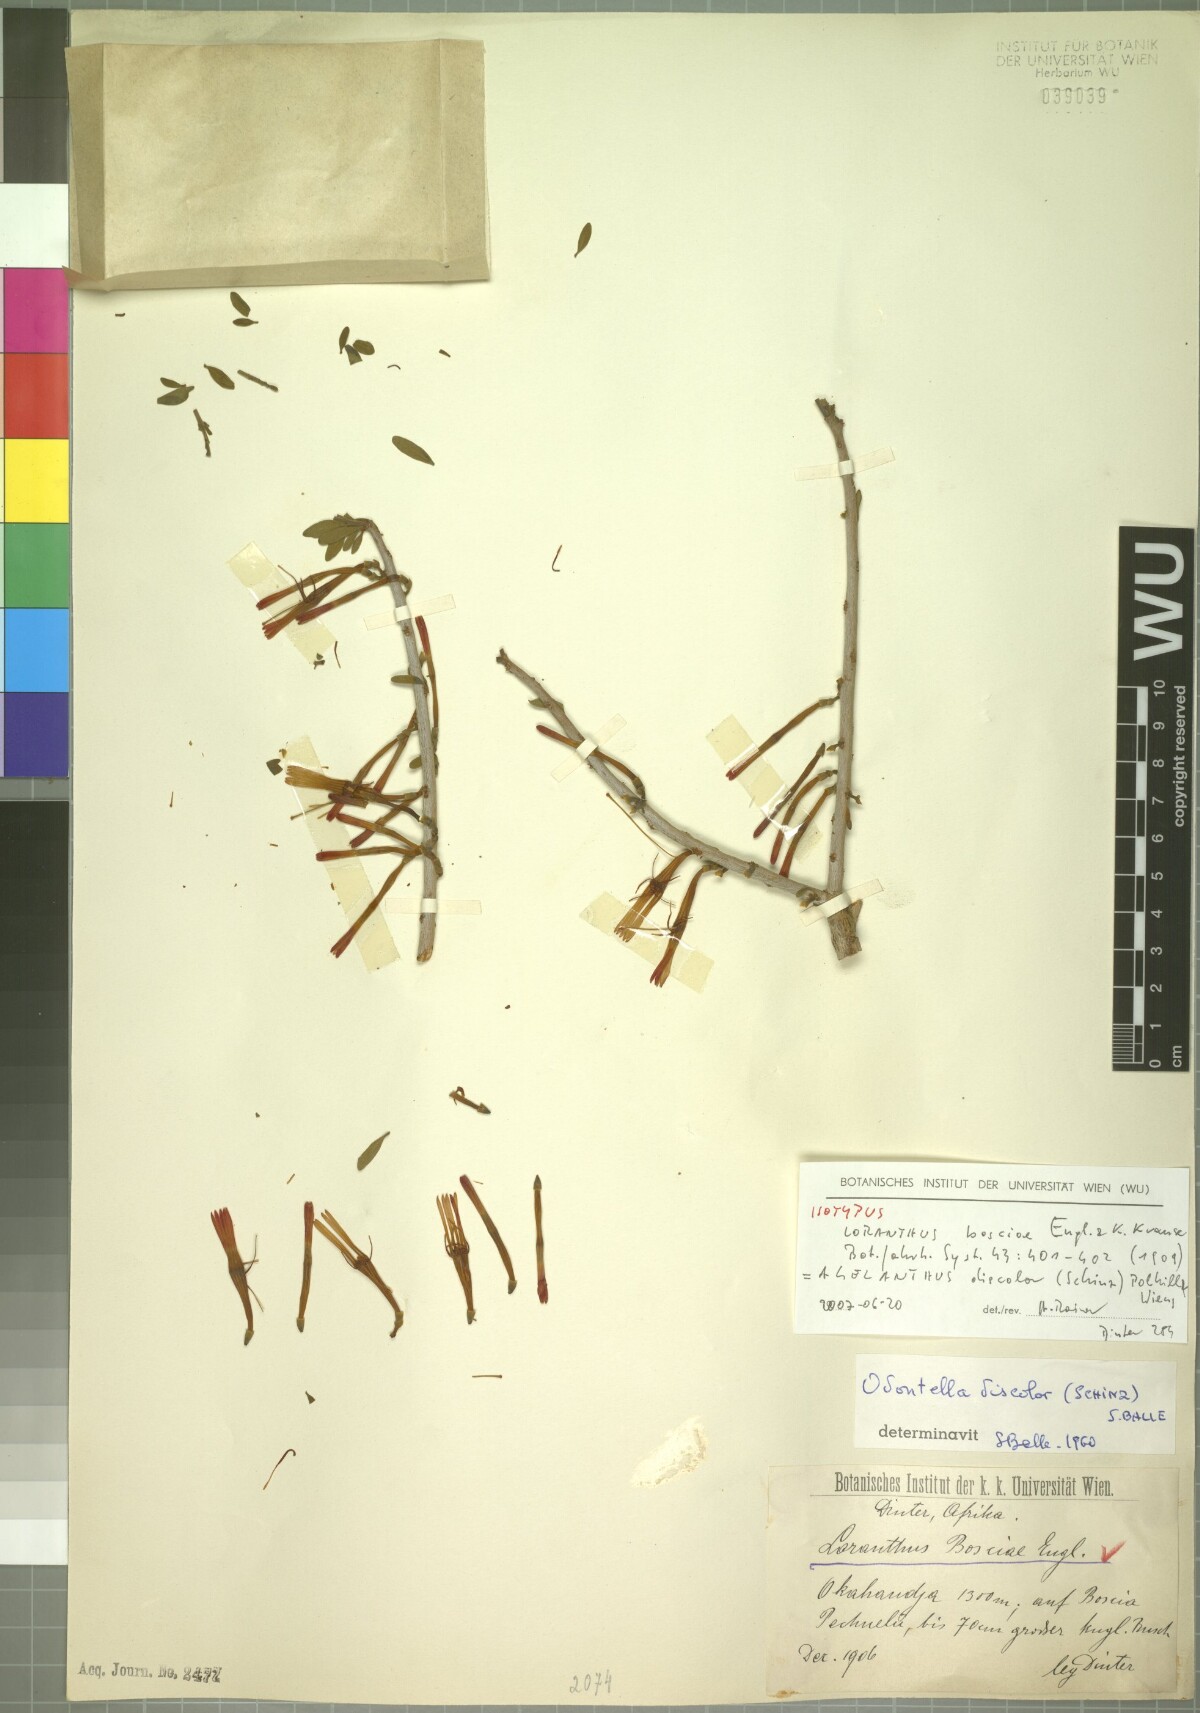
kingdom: Plantae
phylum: Tracheophyta
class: Magnoliopsida
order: Santalales
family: Loranthaceae
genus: Agelanthus
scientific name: Agelanthus discolor
